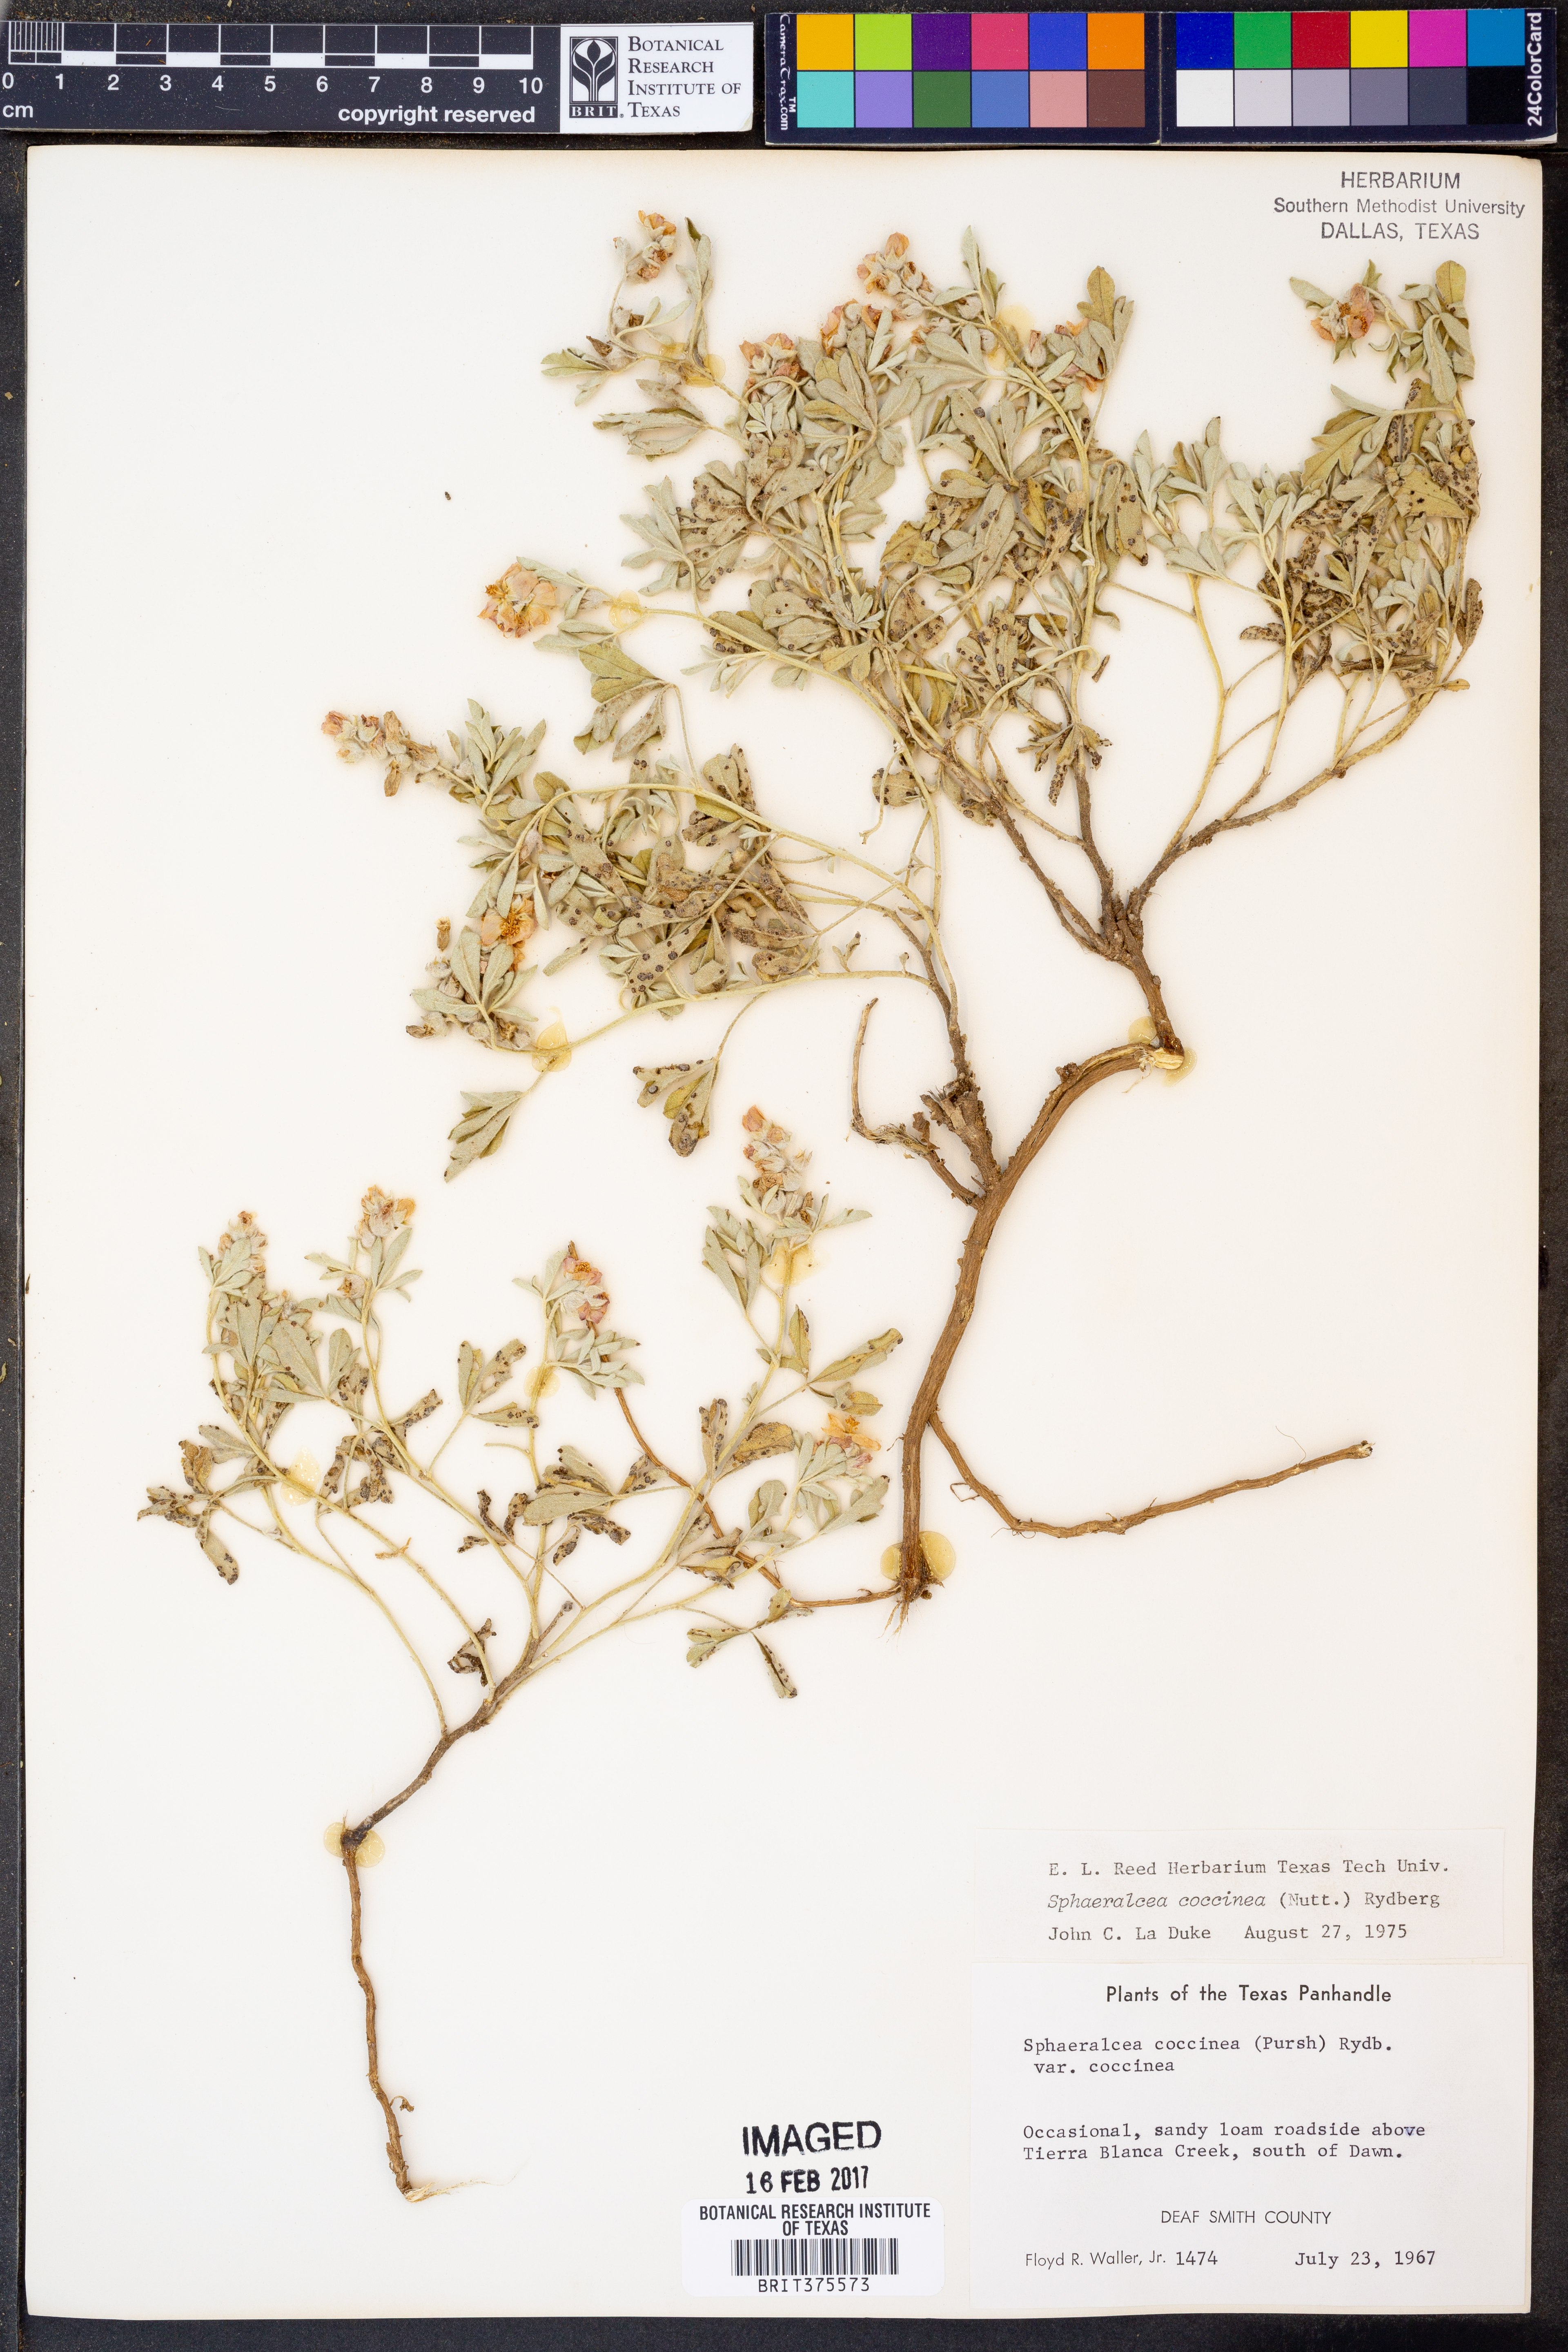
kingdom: Plantae
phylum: Tracheophyta
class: Magnoliopsida
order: Malvales
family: Malvaceae
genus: Sphaeralcea
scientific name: Sphaeralcea coccinea
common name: Moss-rose
